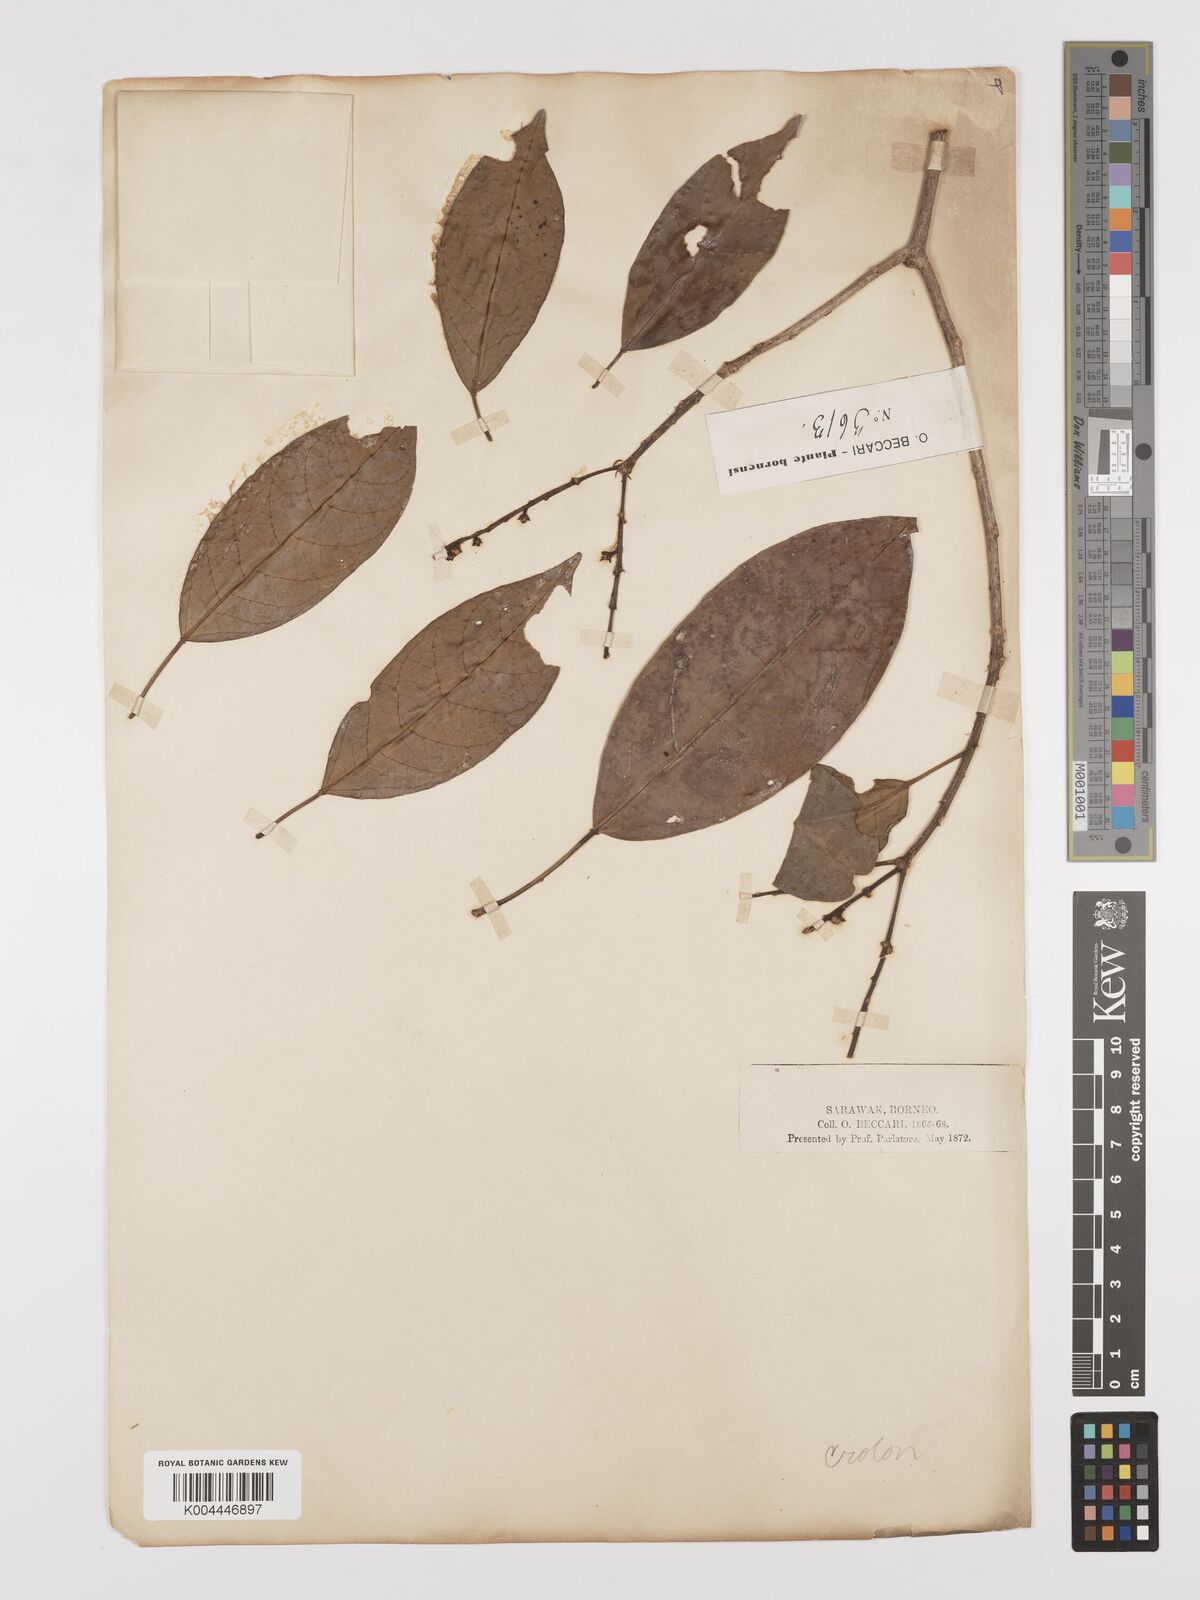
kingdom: Plantae
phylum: Tracheophyta
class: Magnoliopsida
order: Malpighiales
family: Euphorbiaceae
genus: Croton
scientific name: Croton oblongus
